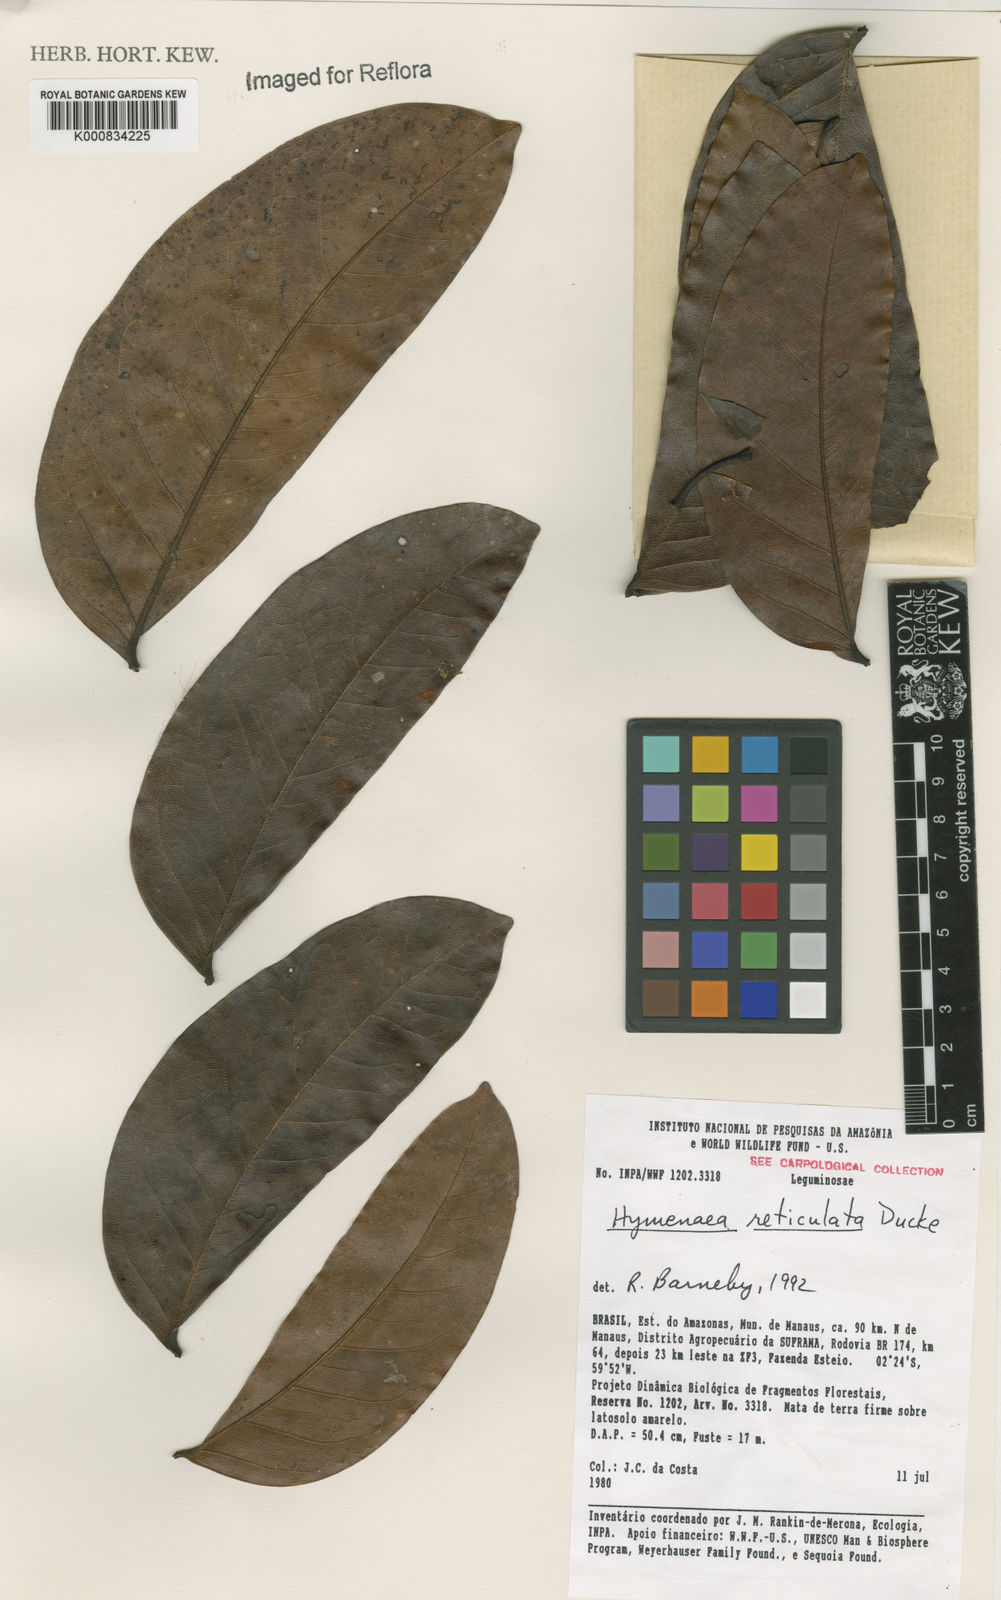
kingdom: Plantae
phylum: Tracheophyta
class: Magnoliopsida
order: Fabales
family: Fabaceae
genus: Hymenaea
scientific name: Hymenaea reticulata
